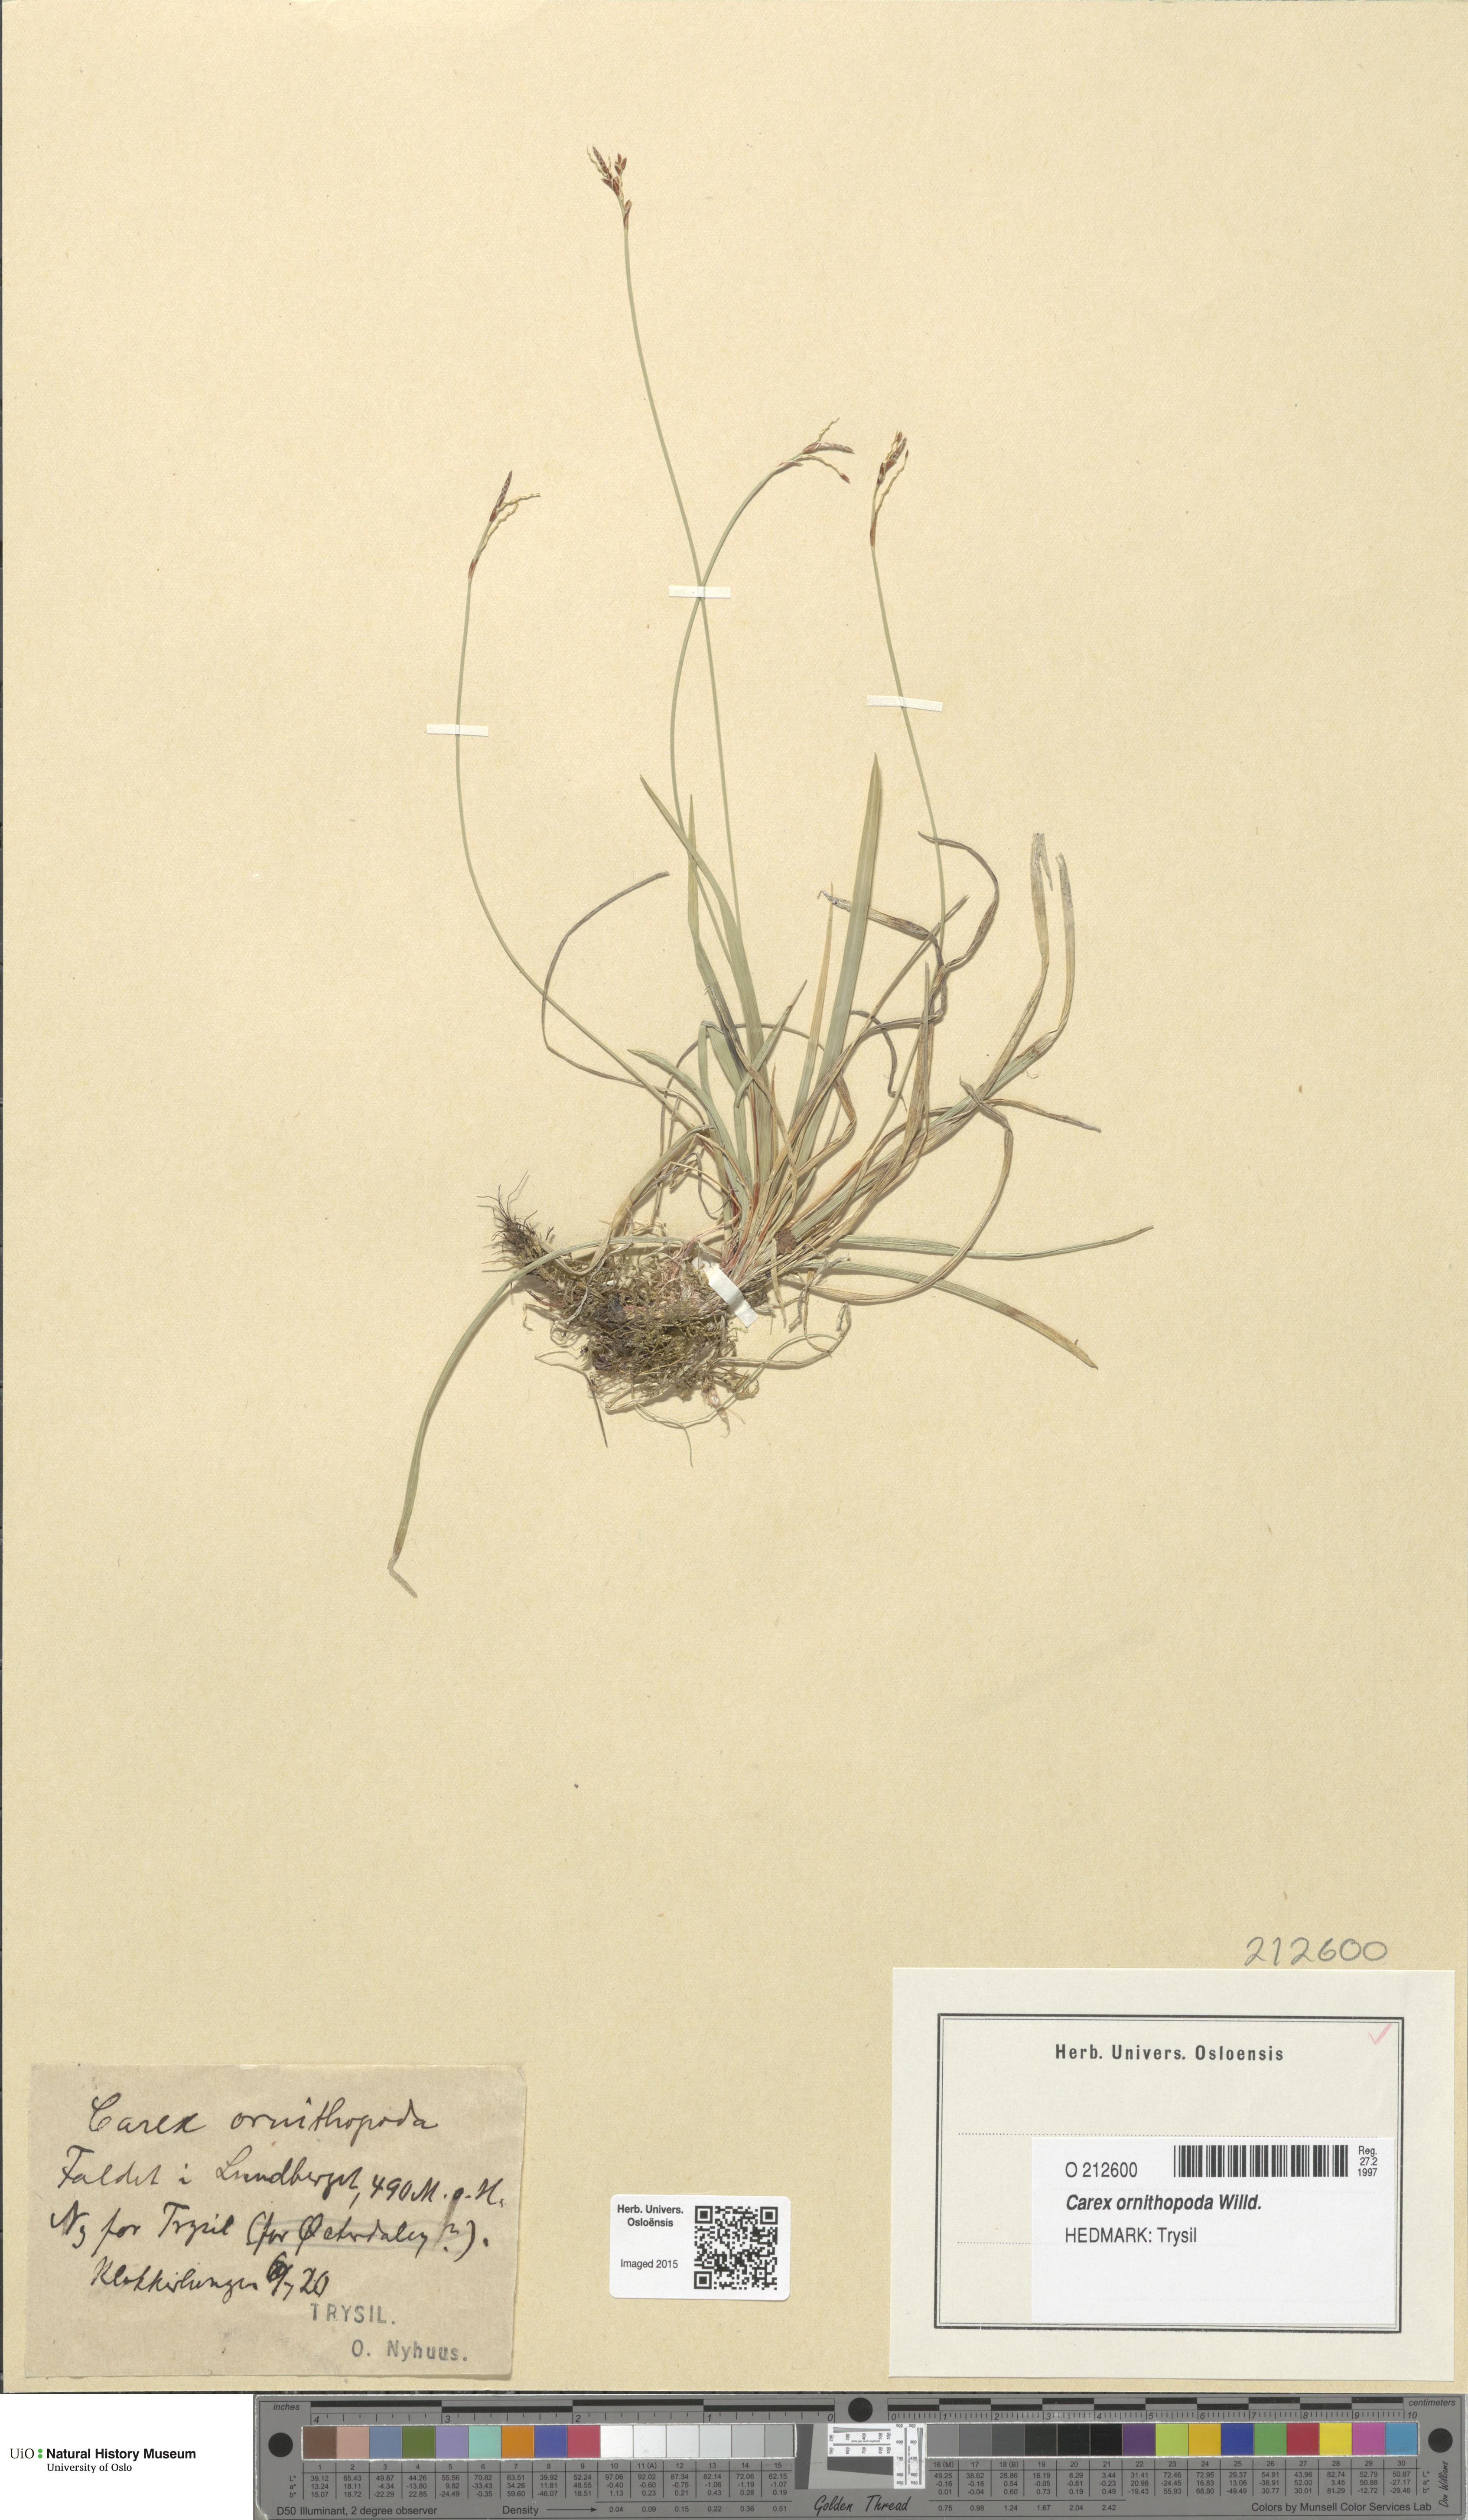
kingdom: Plantae
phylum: Tracheophyta
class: Liliopsida
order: Poales
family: Cyperaceae
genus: Carex
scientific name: Carex ornithopoda
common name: Bird's-foot sedge
